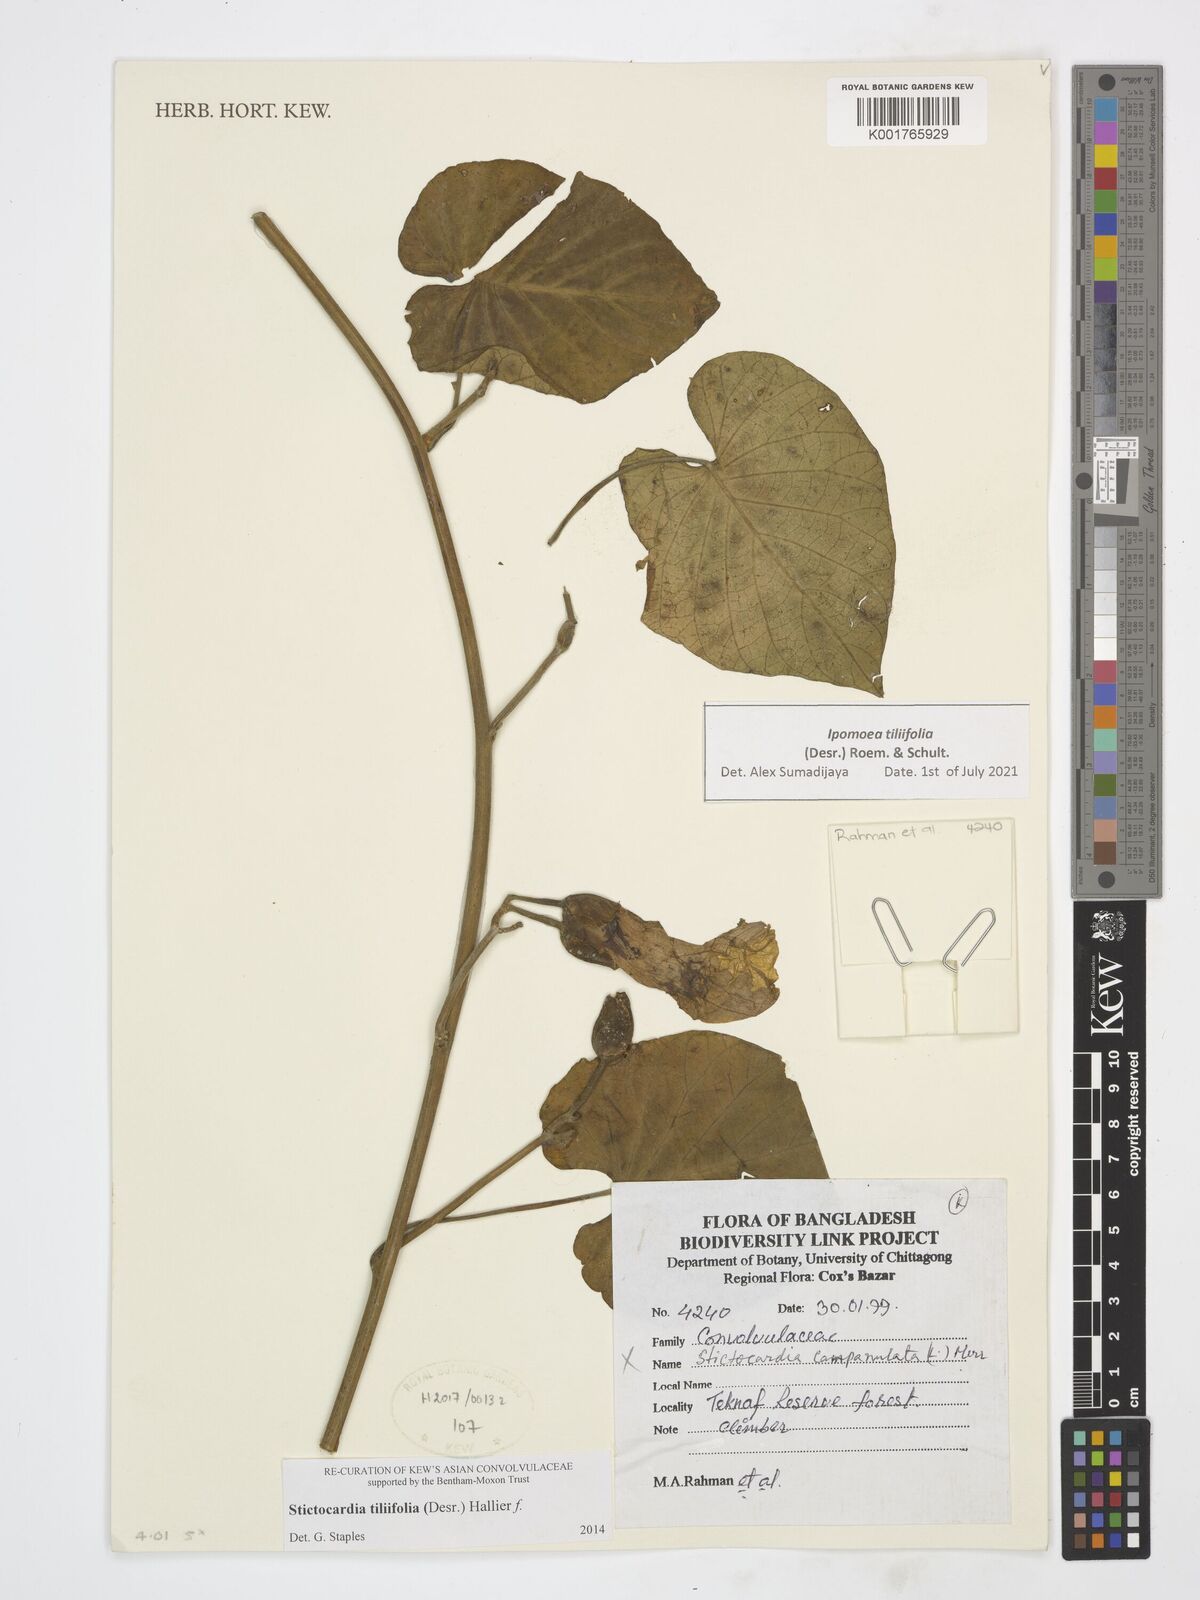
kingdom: Plantae
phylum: Tracheophyta
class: Magnoliopsida
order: Solanales
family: Convolvulaceae
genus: Stictocardia
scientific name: Stictocardia tiliifolia
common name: Spottedheart
